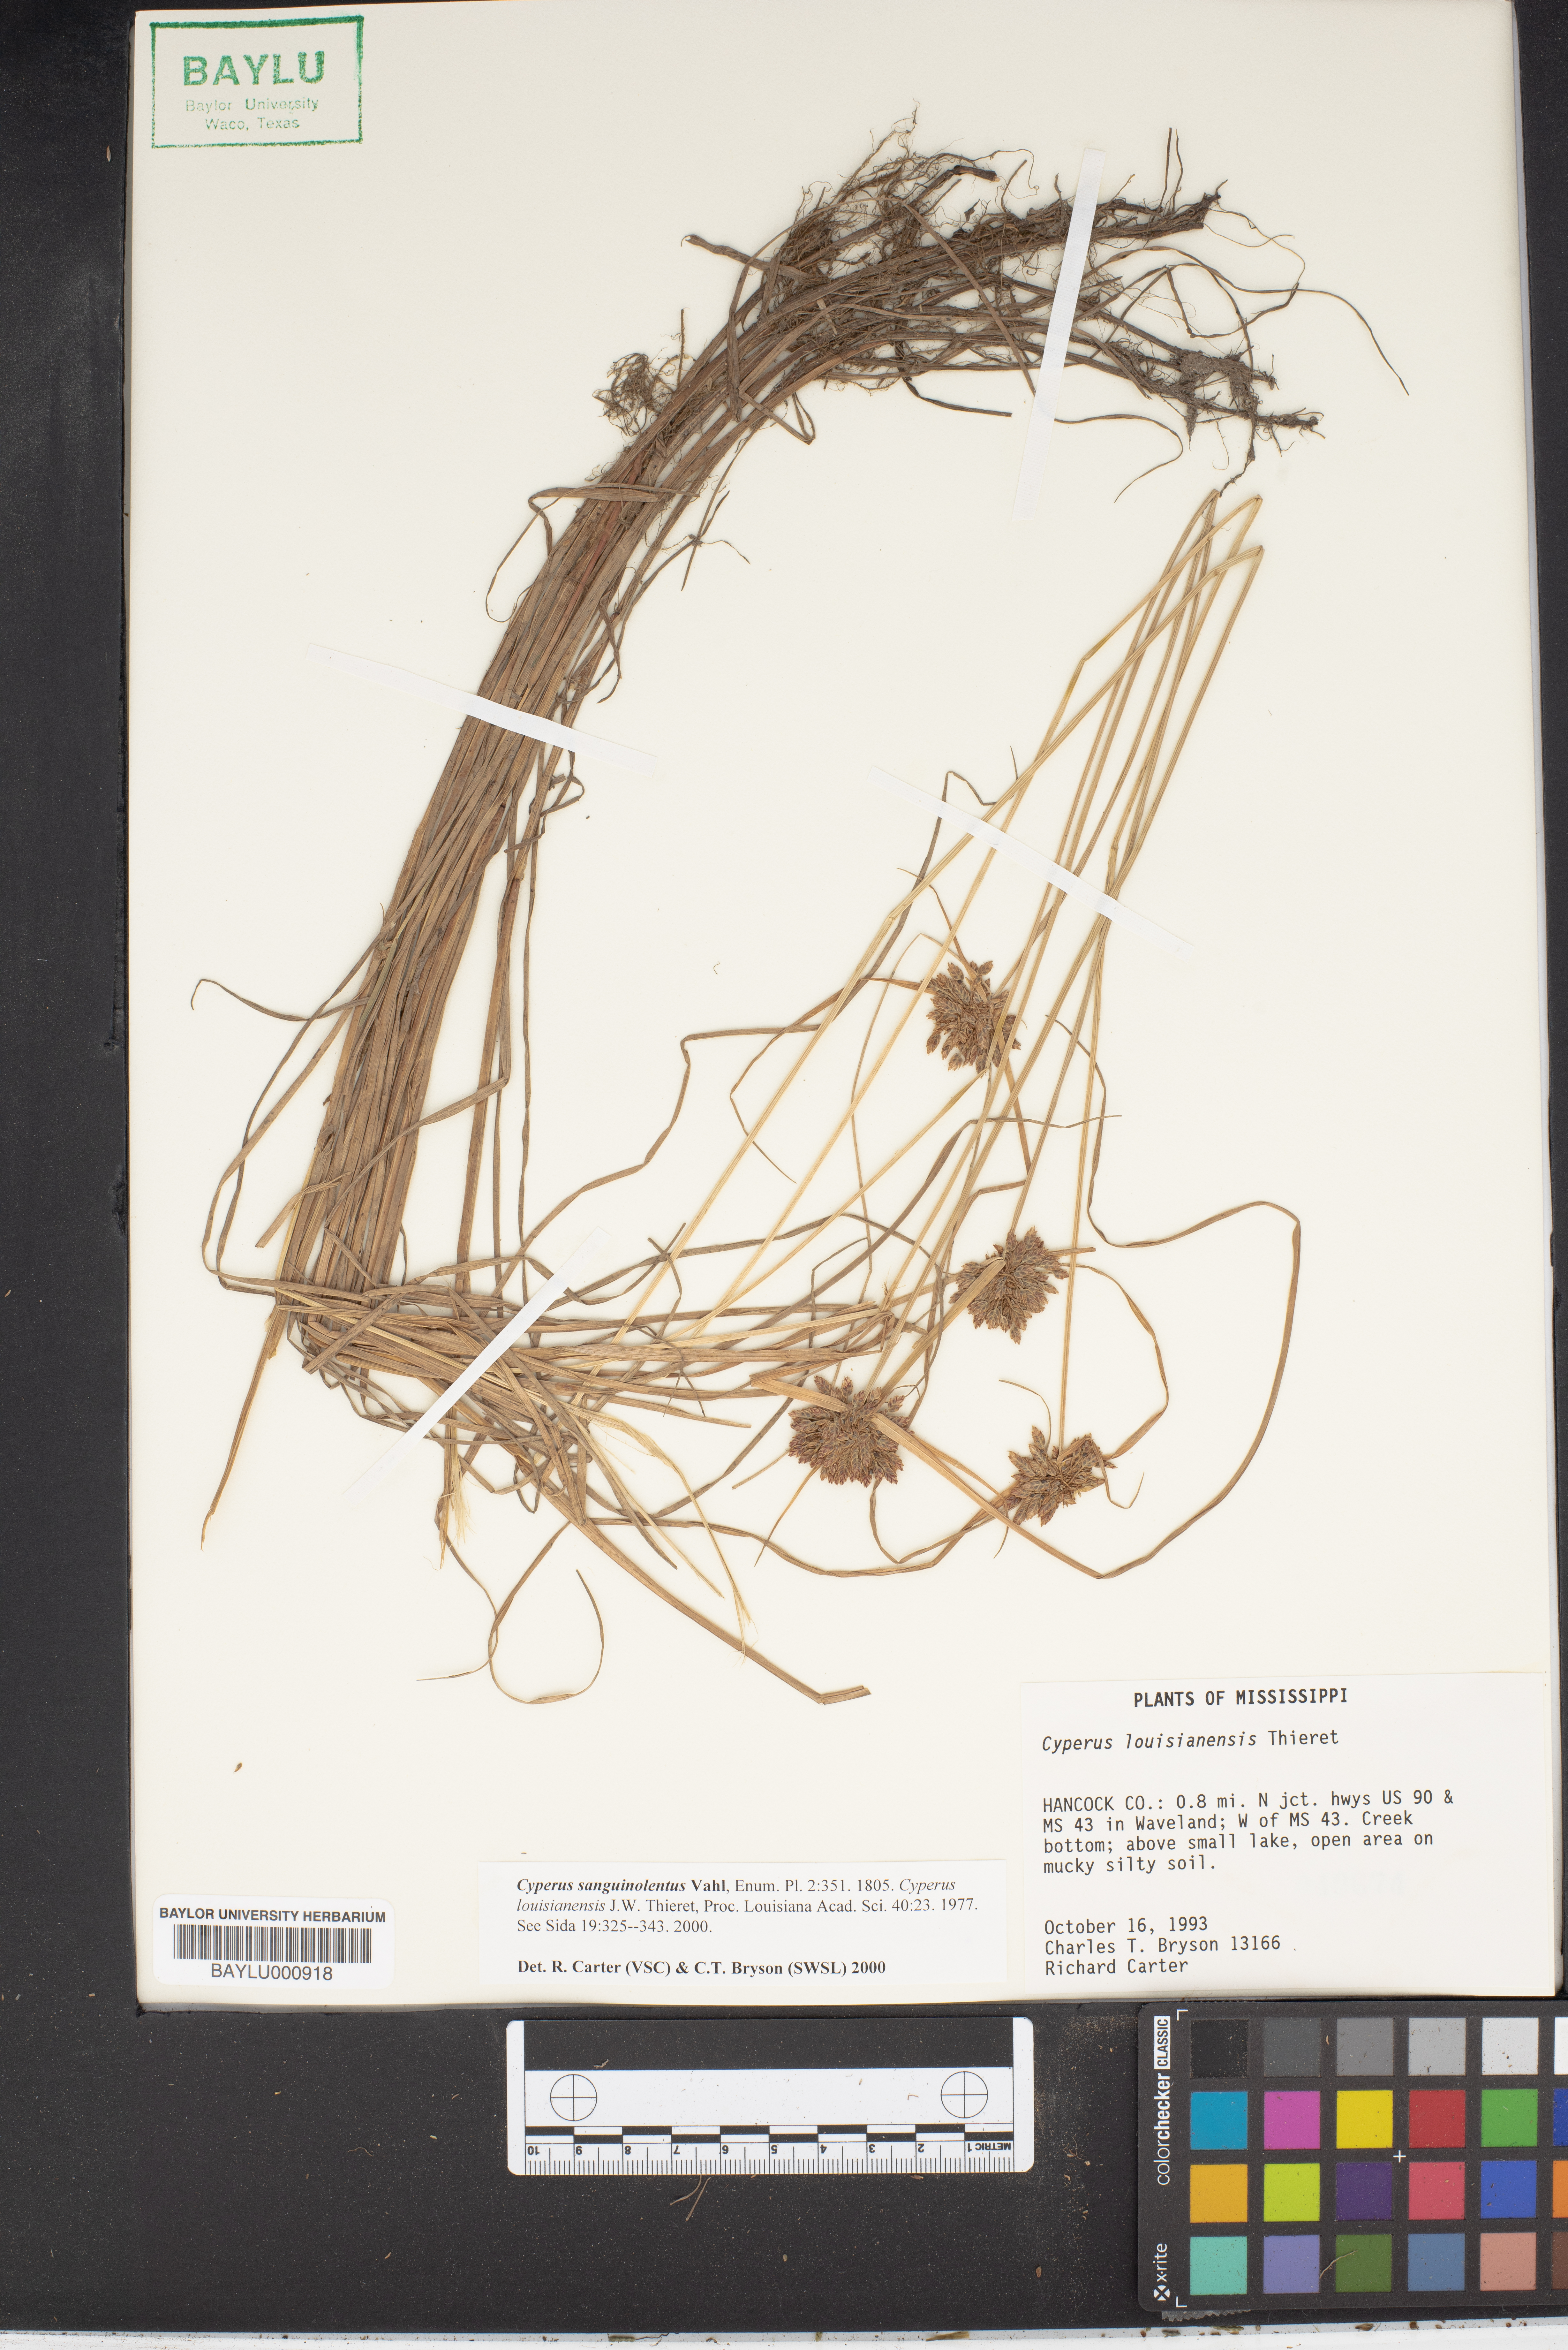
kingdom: Plantae
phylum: Tracheophyta
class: Liliopsida
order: Poales
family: Cyperaceae
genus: Cyperus
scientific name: Cyperus sanguinolentus
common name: Purpleglume flatsedge
